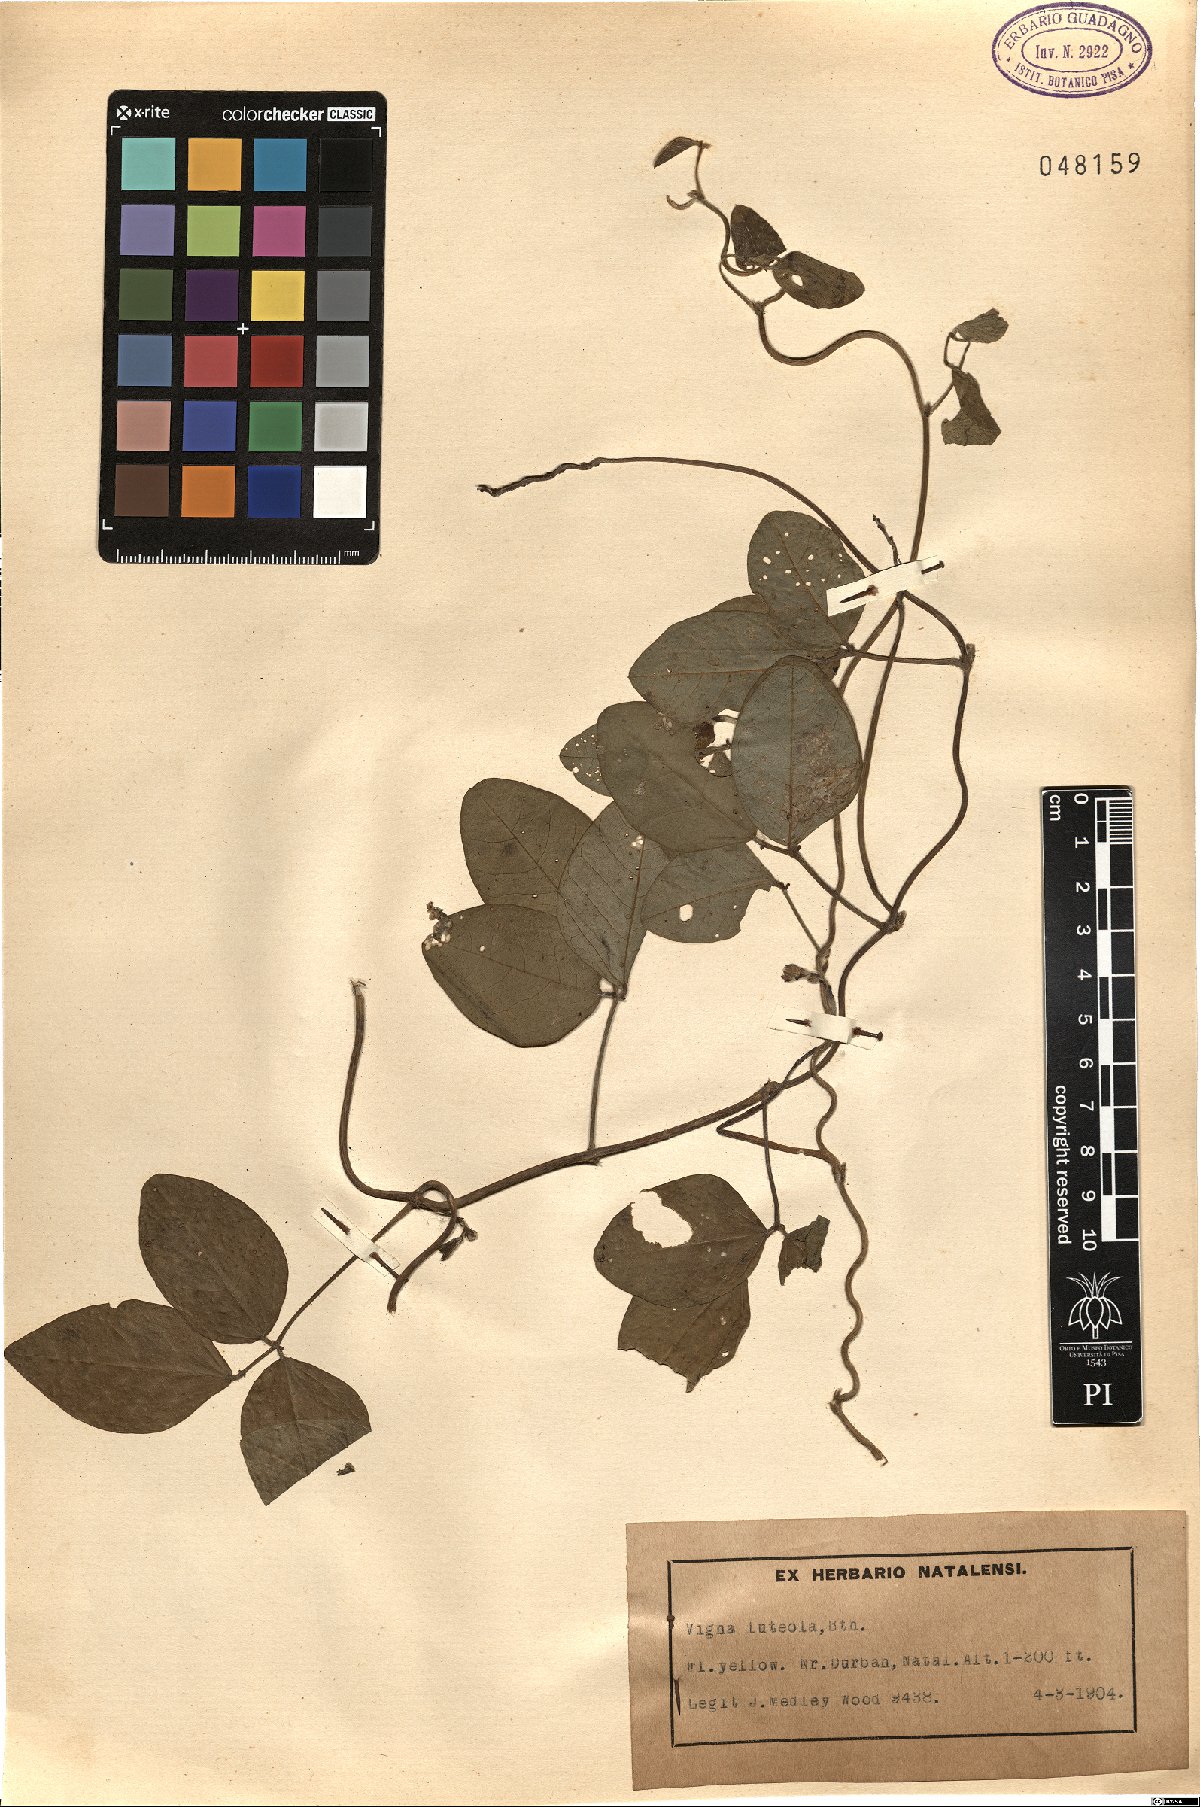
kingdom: Plantae
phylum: Tracheophyta
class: Magnoliopsida
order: Fabales
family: Fabaceae
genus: Vigna
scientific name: Vigna luteola
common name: Hairypod cowpea
